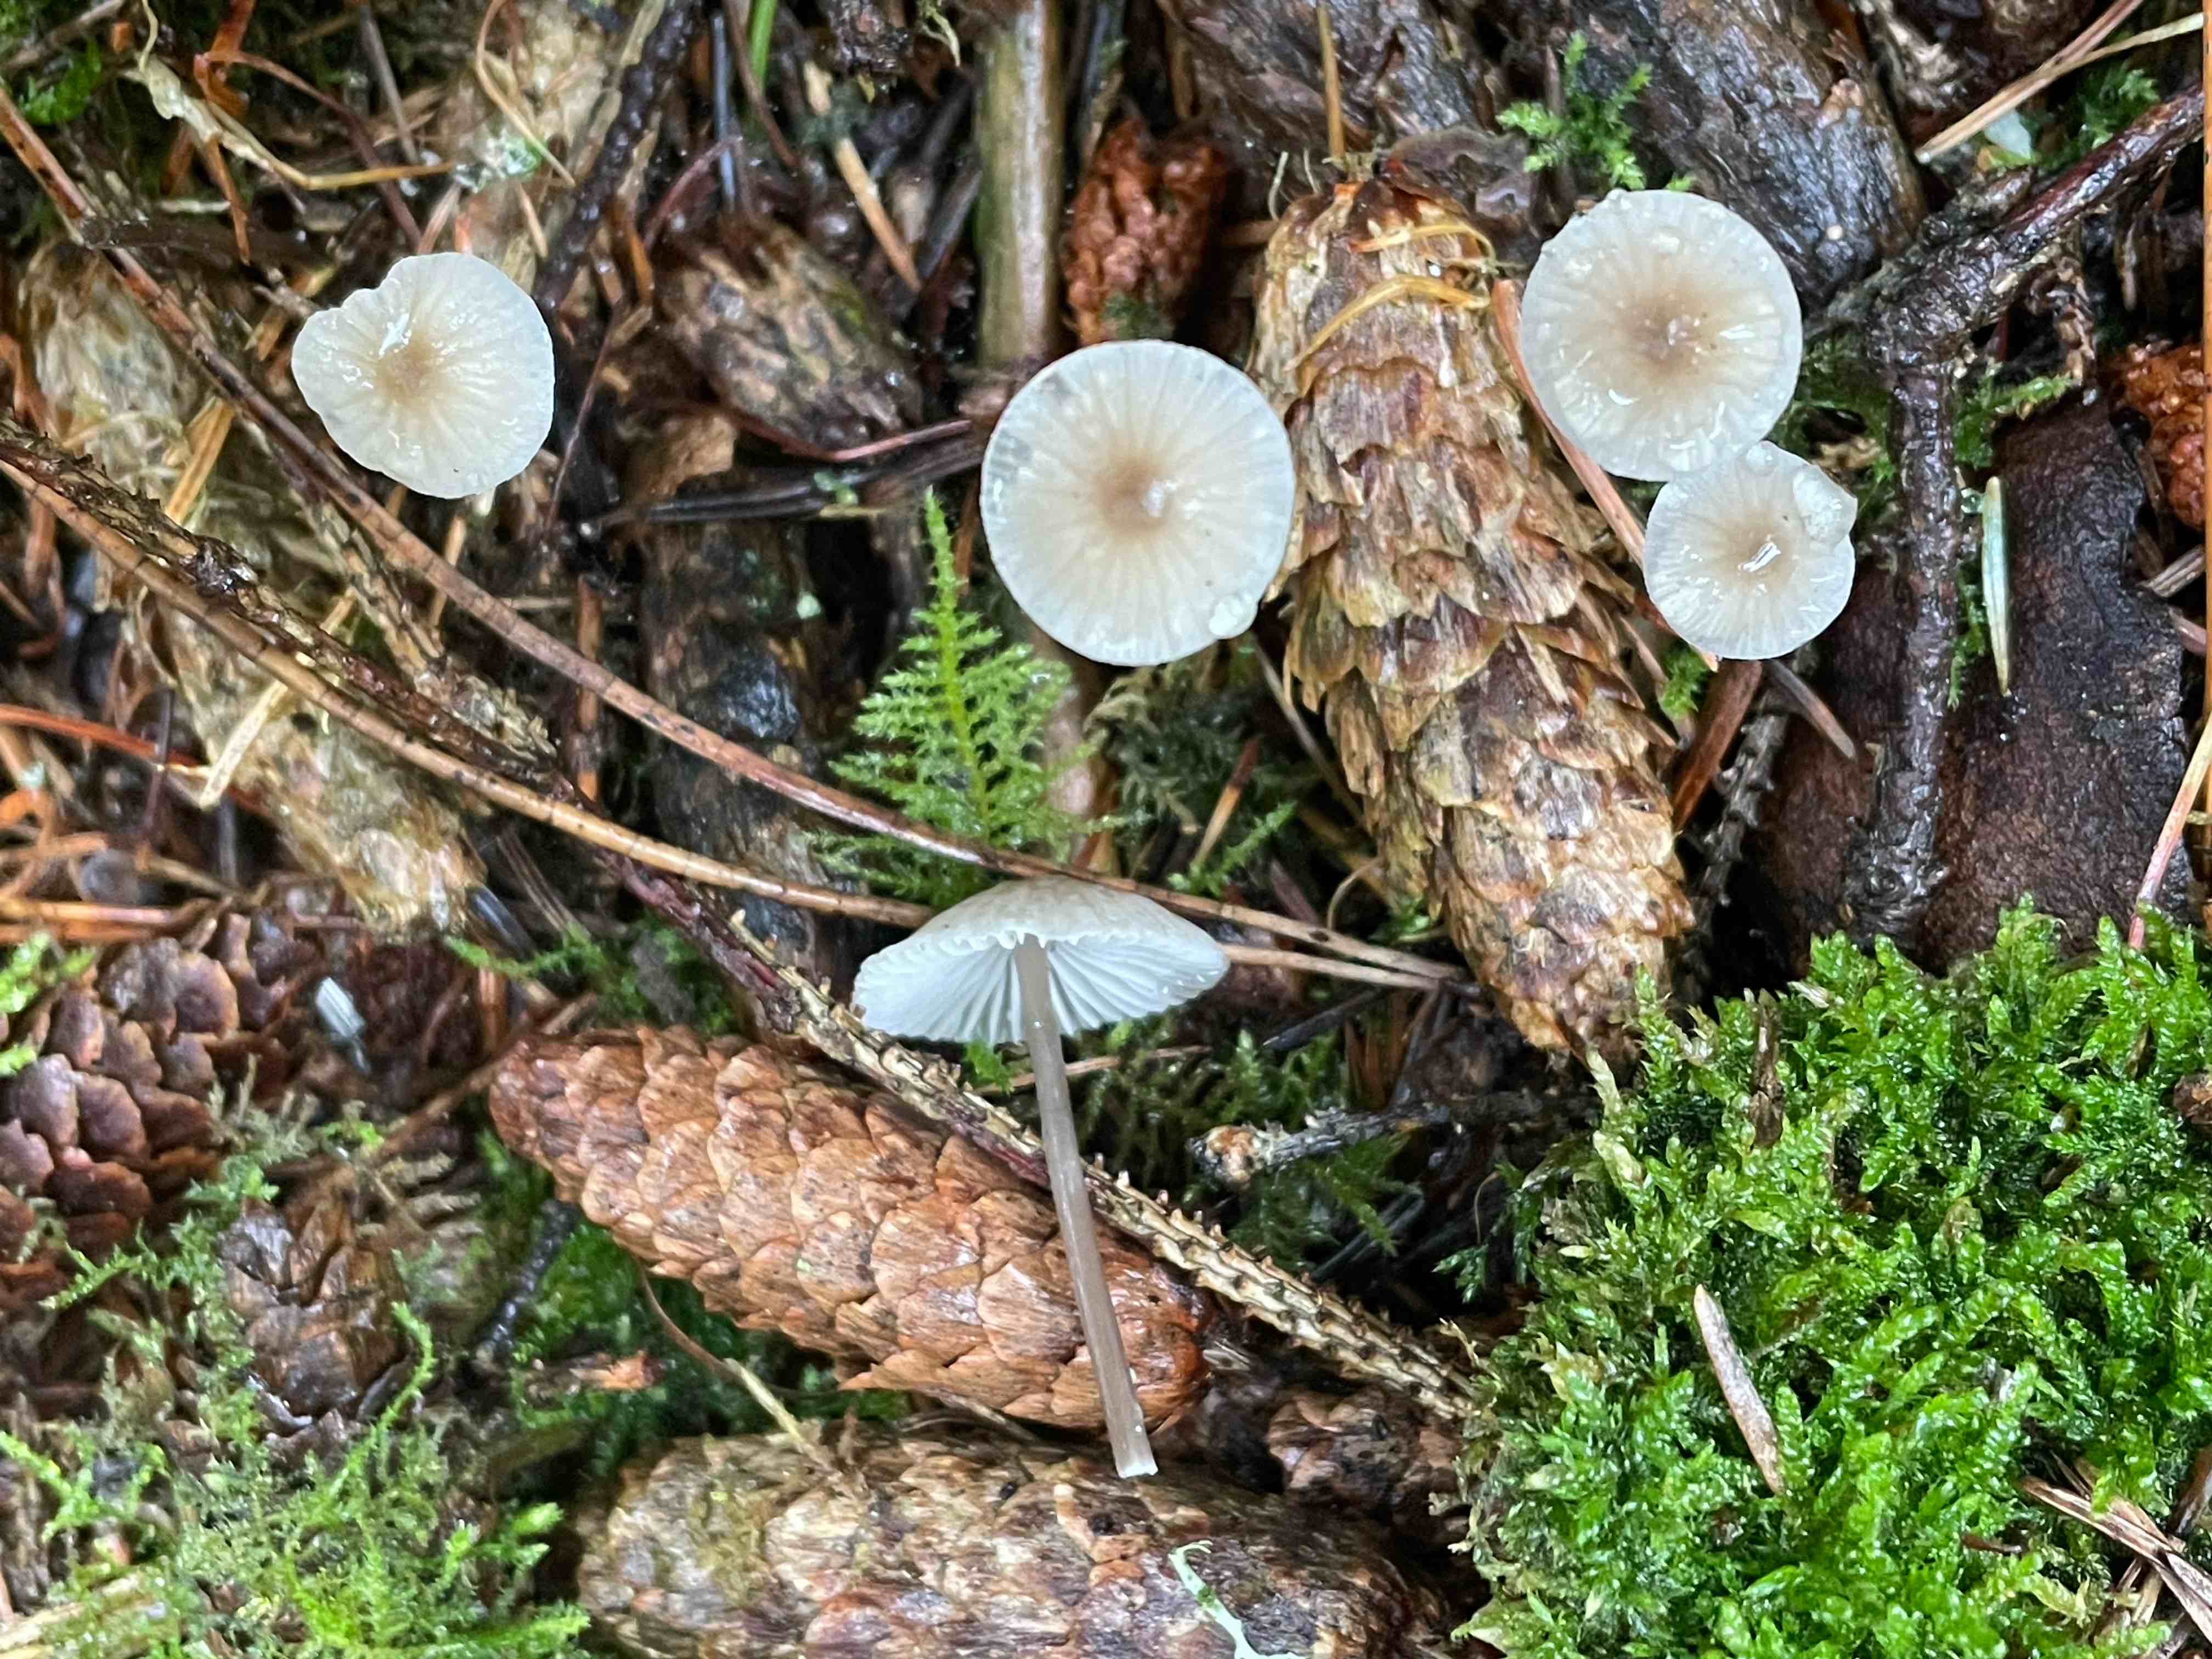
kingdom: Fungi
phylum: Basidiomycota
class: Agaricomycetes
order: Agaricales
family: Mycenaceae
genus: Mycena
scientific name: Mycena galopus
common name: hvidmælket huesvamp
